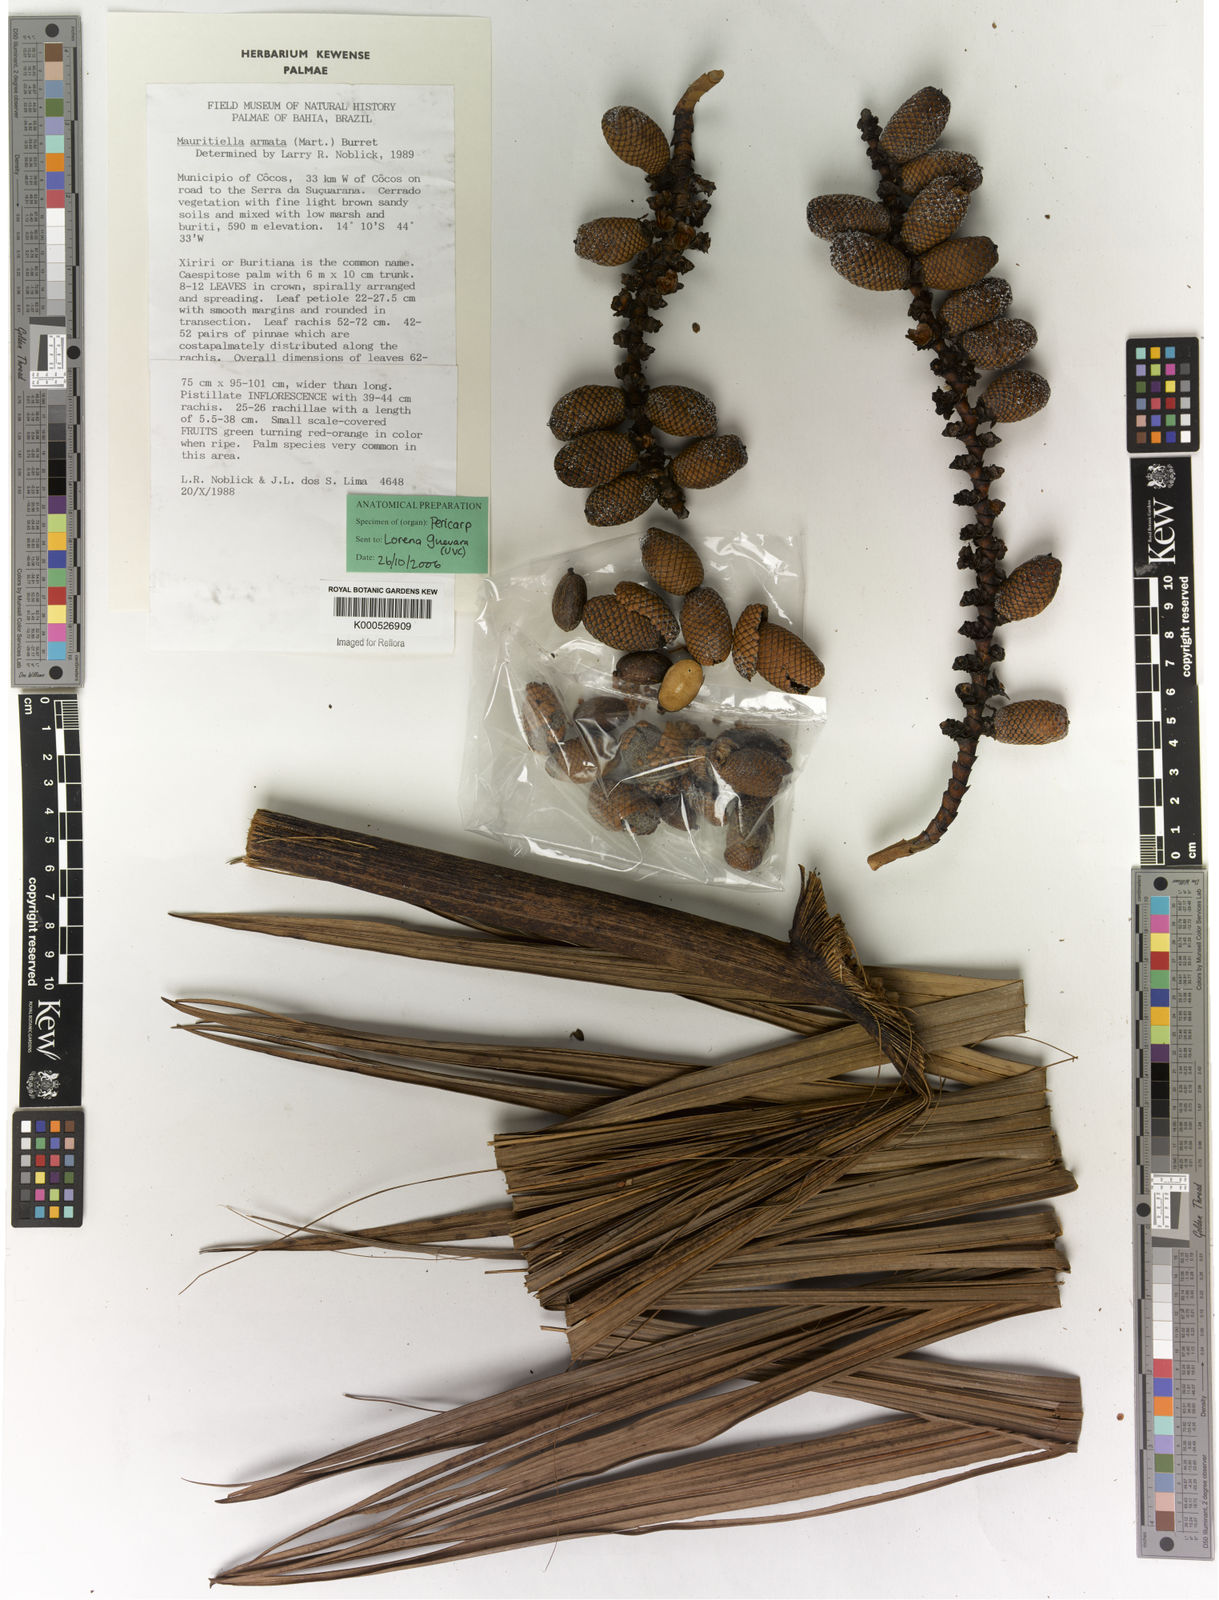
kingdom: Plantae
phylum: Tracheophyta
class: Liliopsida
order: Arecales
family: Arecaceae
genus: Mauritiella
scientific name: Mauritiella armata
